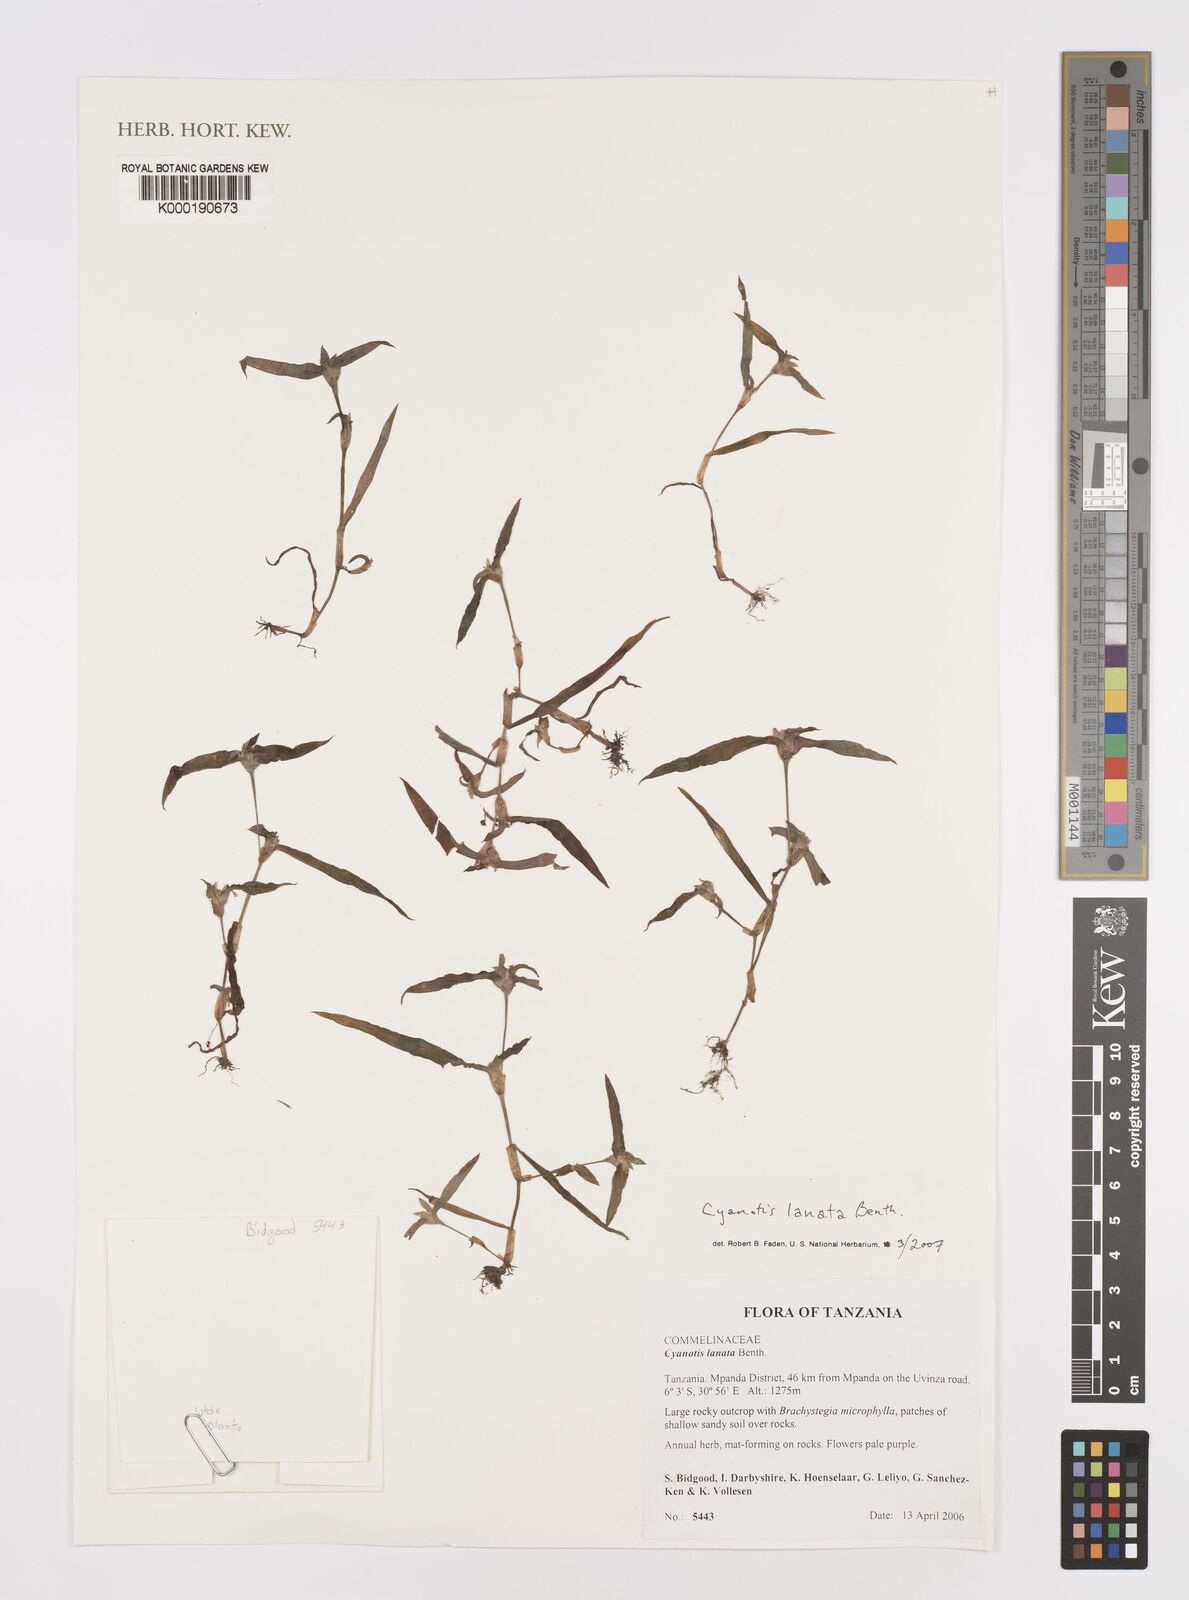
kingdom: Plantae
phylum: Tracheophyta
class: Liliopsida
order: Commelinales
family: Commelinaceae
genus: Cyanotis
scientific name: Cyanotis lanata
